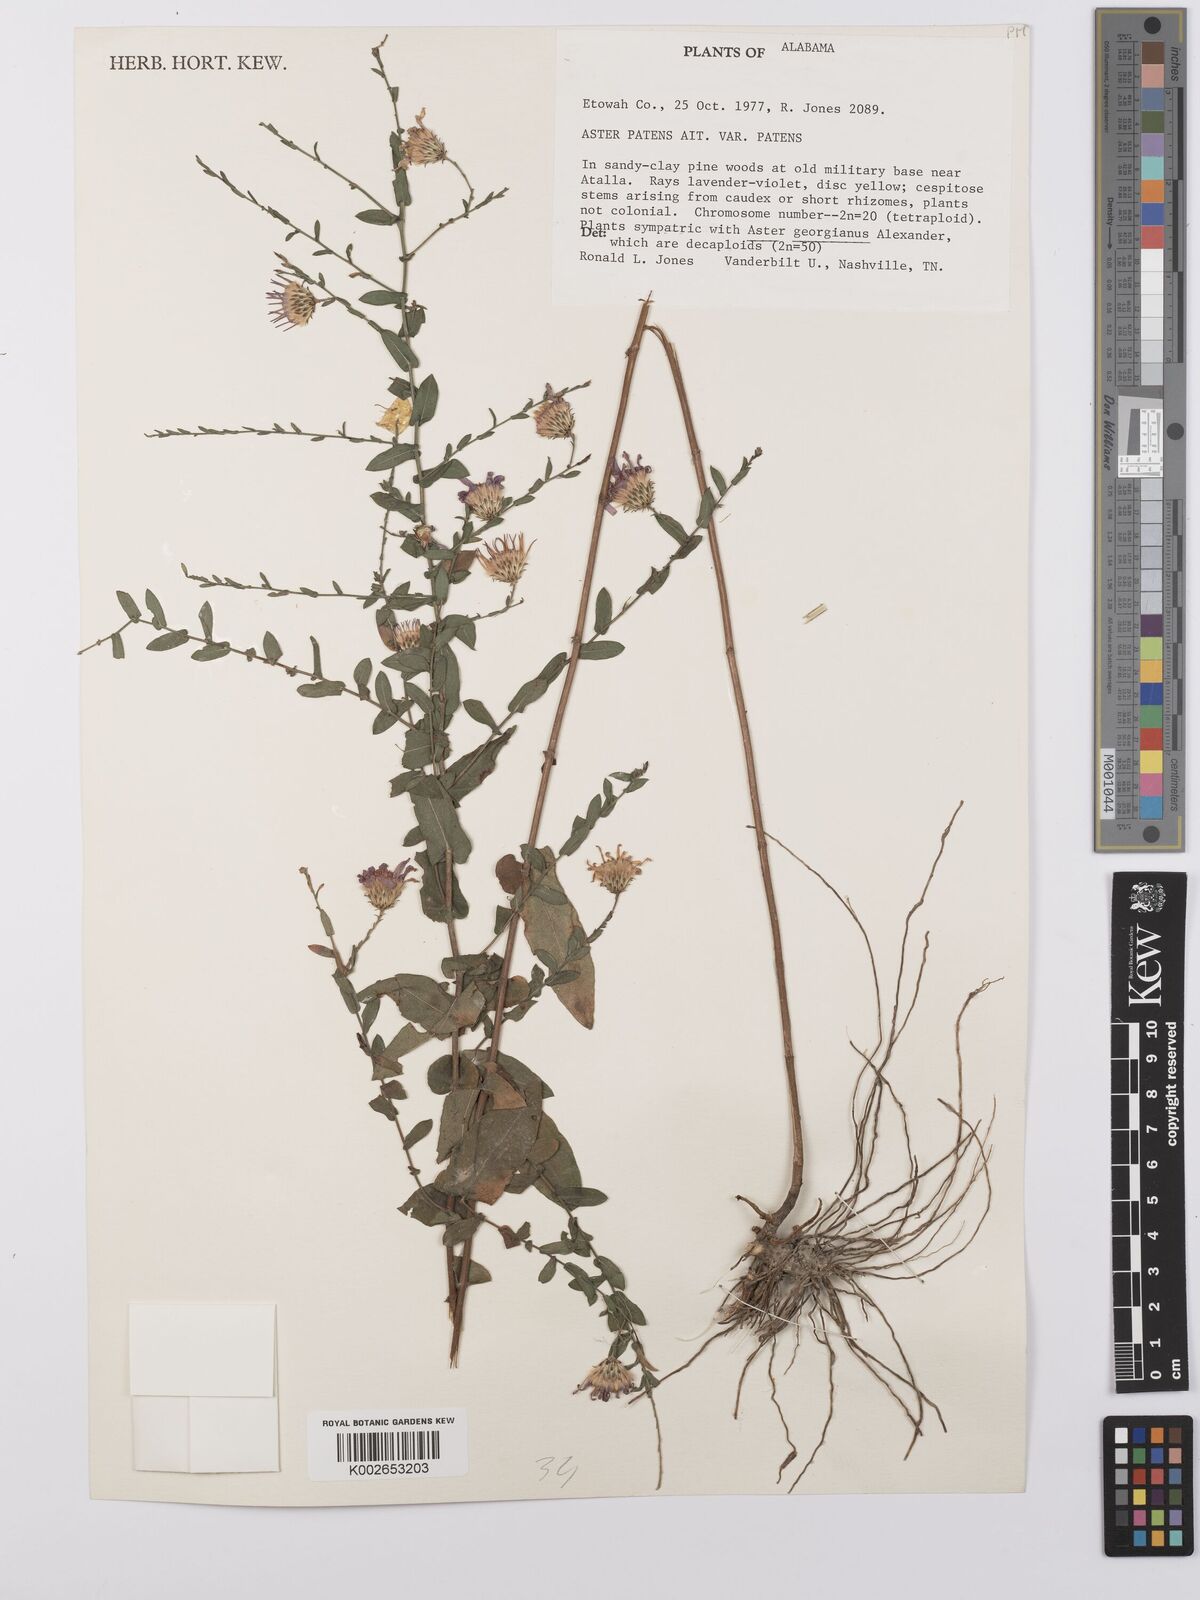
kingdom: Plantae
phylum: Tracheophyta
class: Magnoliopsida
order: Asterales
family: Asteraceae
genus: Symphyotrichum
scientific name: Symphyotrichum patens
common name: Late purple aster
